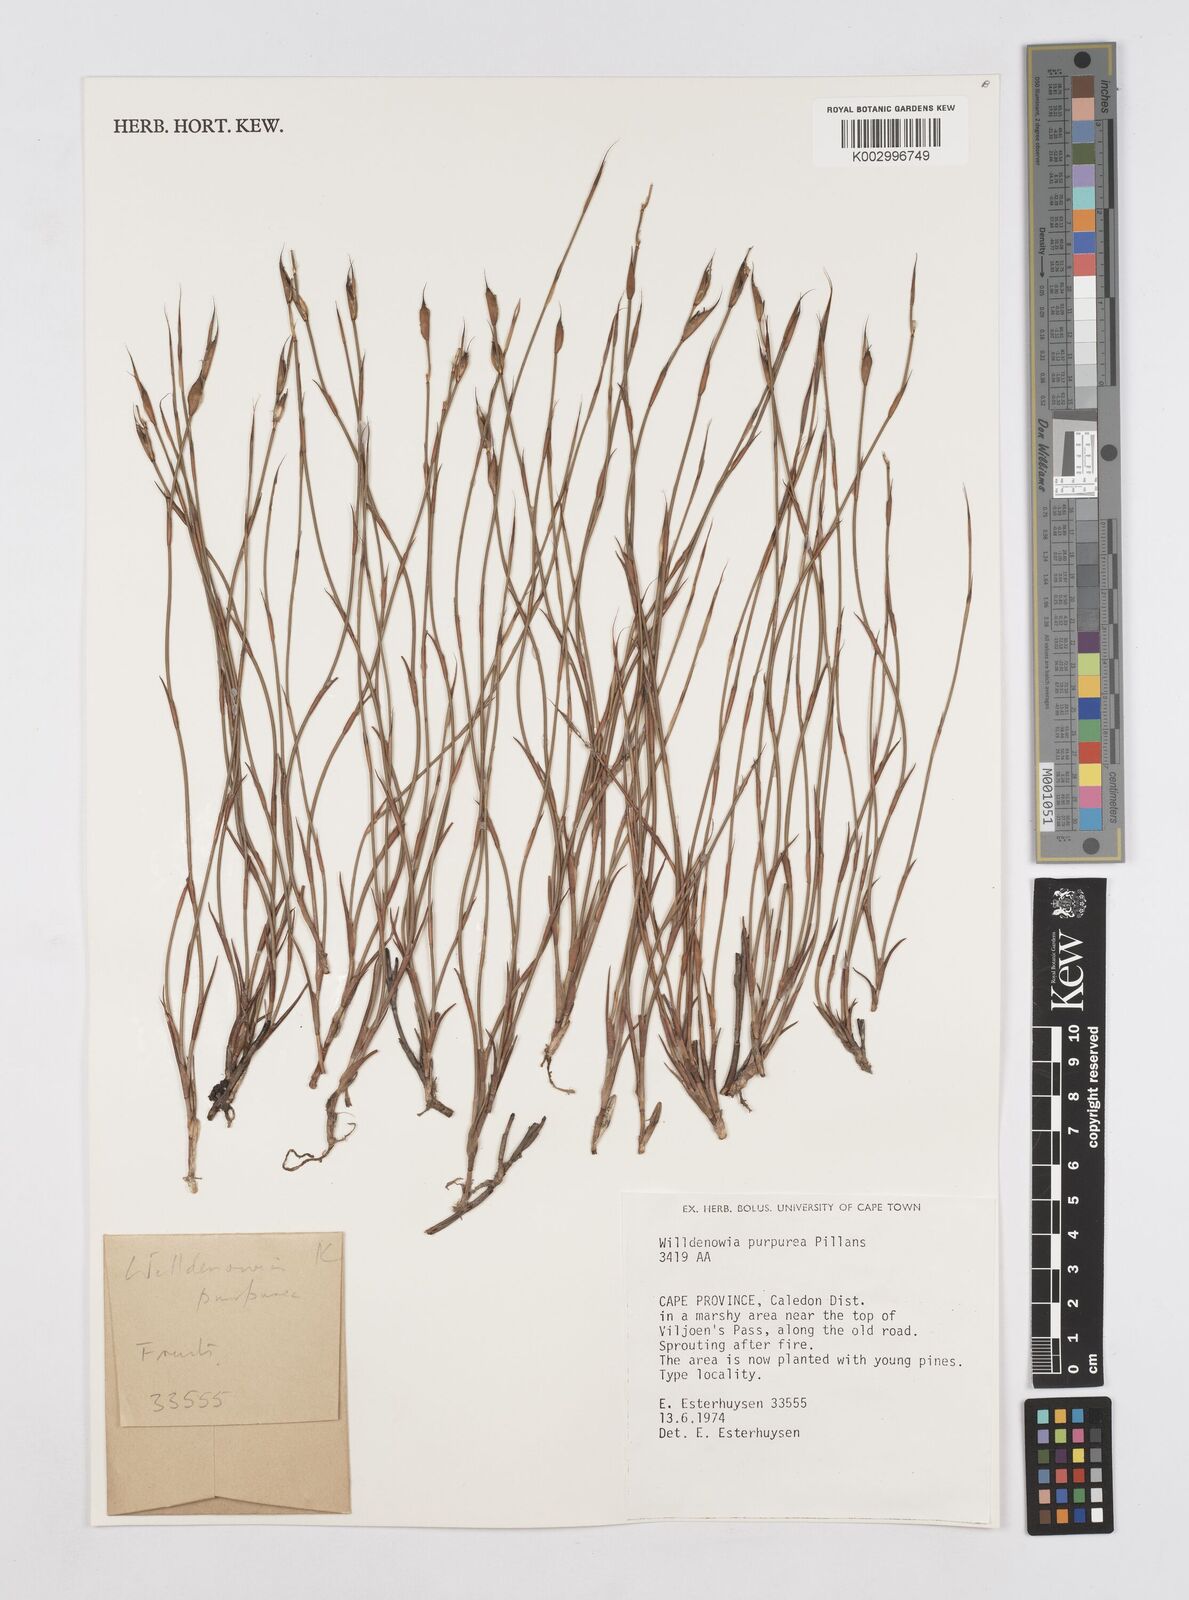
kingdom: Plantae
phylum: Tracheophyta
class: Liliopsida
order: Poales
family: Restionaceae
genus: Willdenowia
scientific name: Willdenowia purpurea
